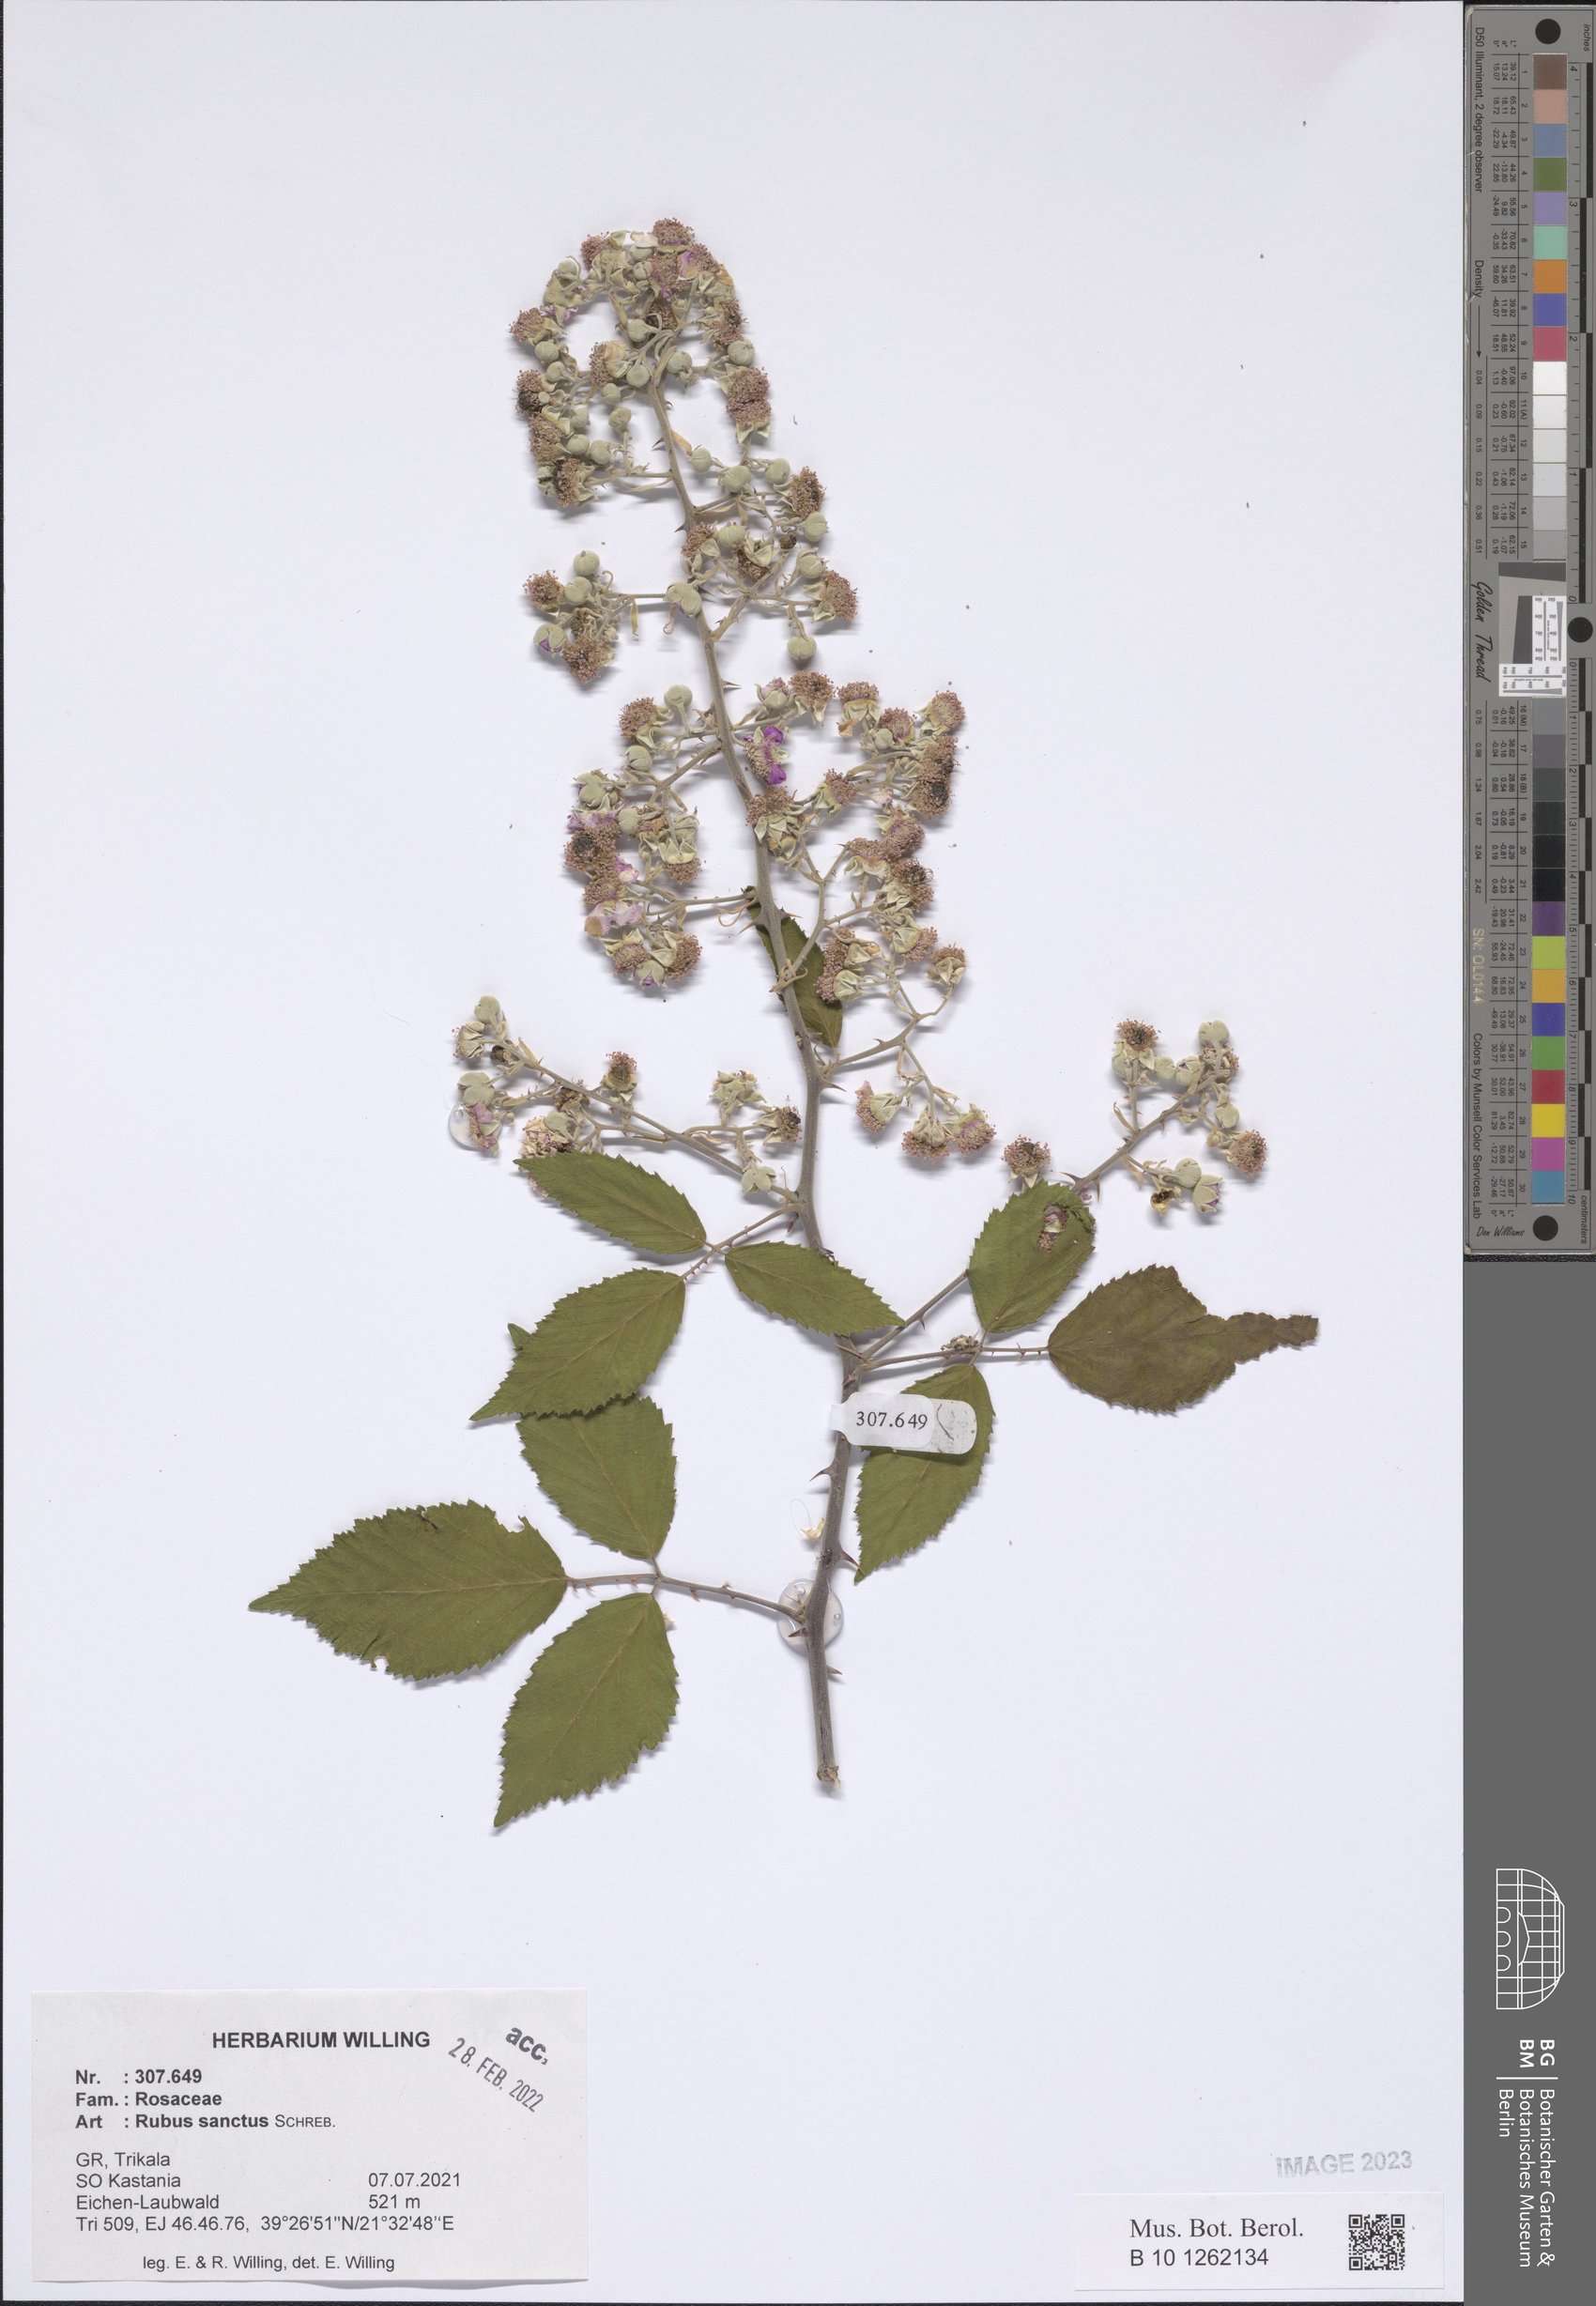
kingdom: Plantae
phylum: Tracheophyta
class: Magnoliopsida
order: Rosales
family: Rosaceae
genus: Rubus
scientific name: Rubus sanctus
